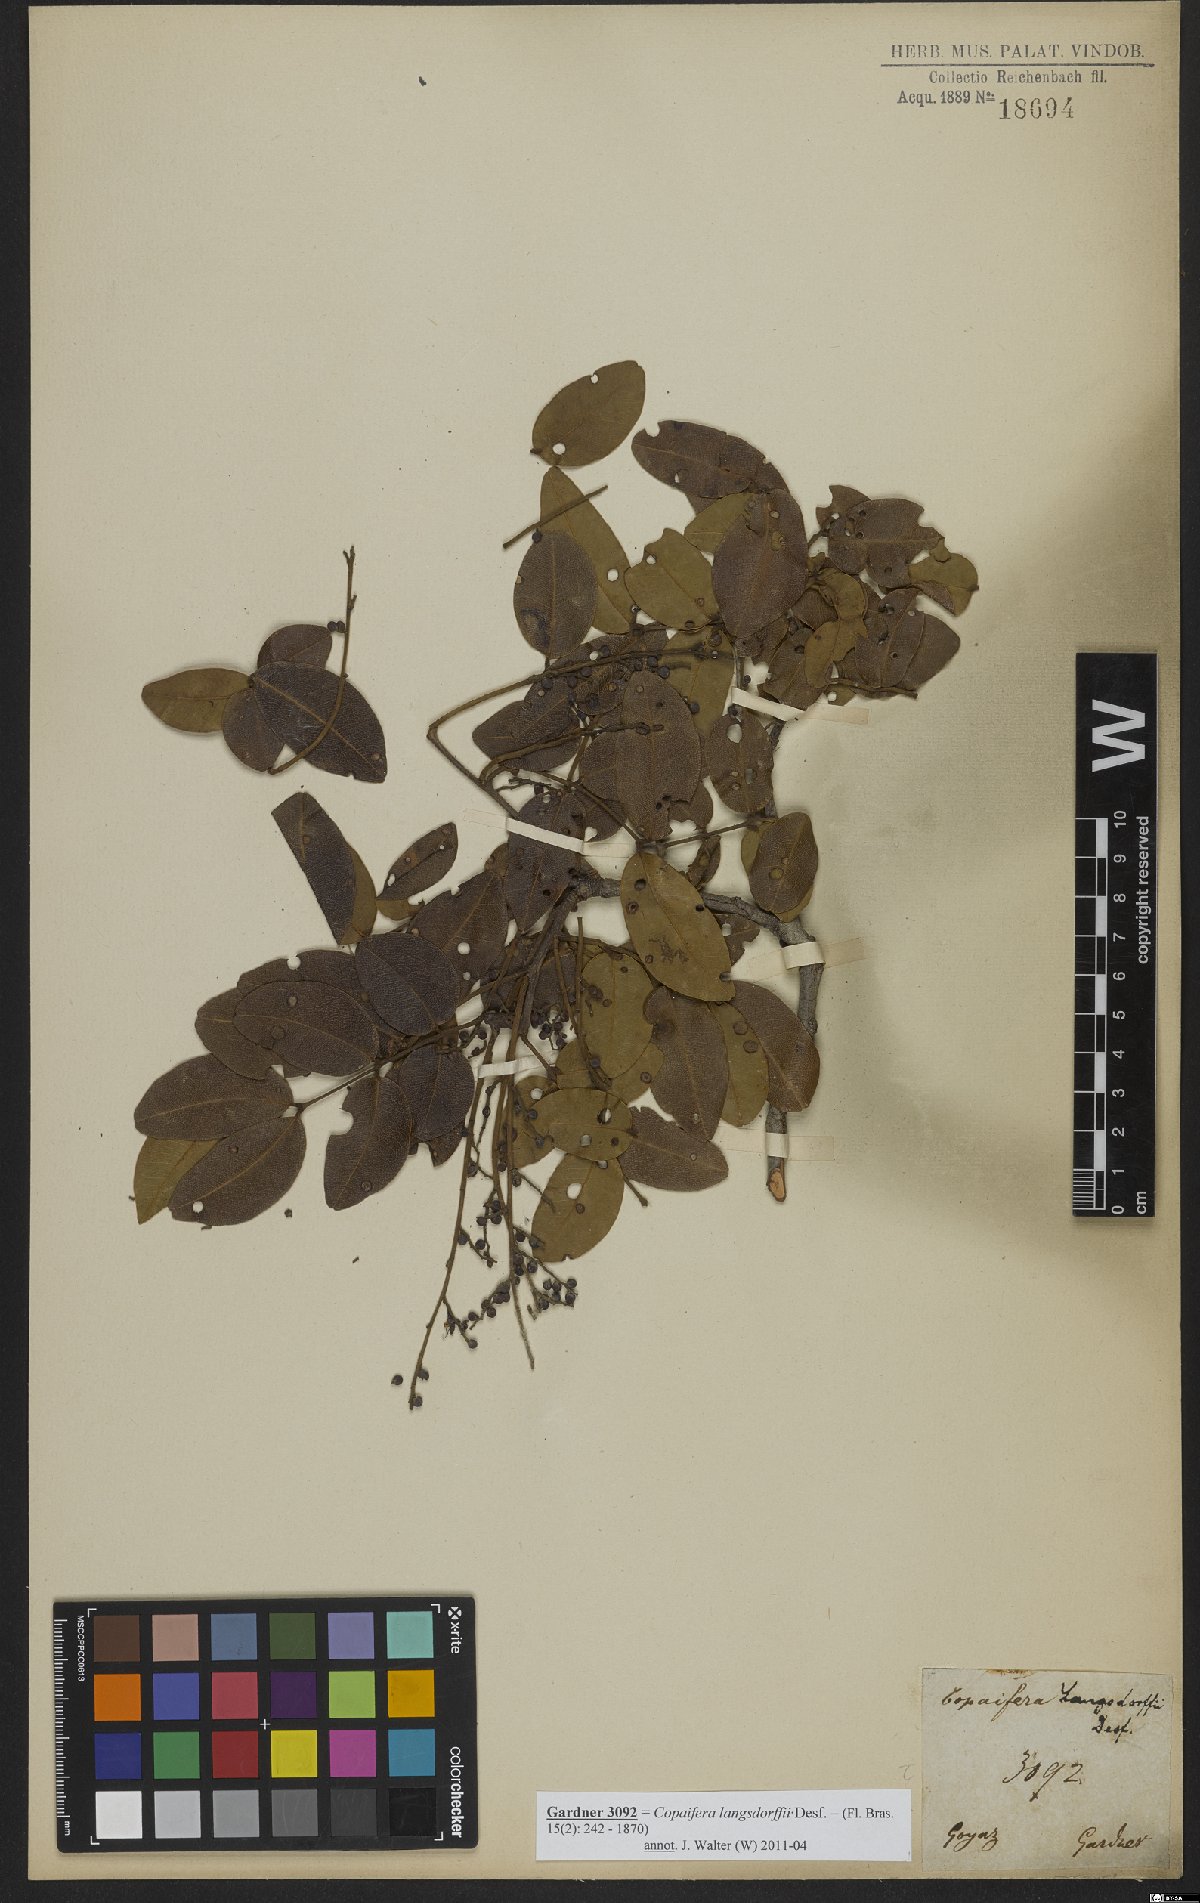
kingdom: Plantae
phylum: Tracheophyta
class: Magnoliopsida
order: Fabales
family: Fabaceae
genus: Copaifera
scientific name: Copaifera langsdorffii
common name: Brazilian diesel tree
